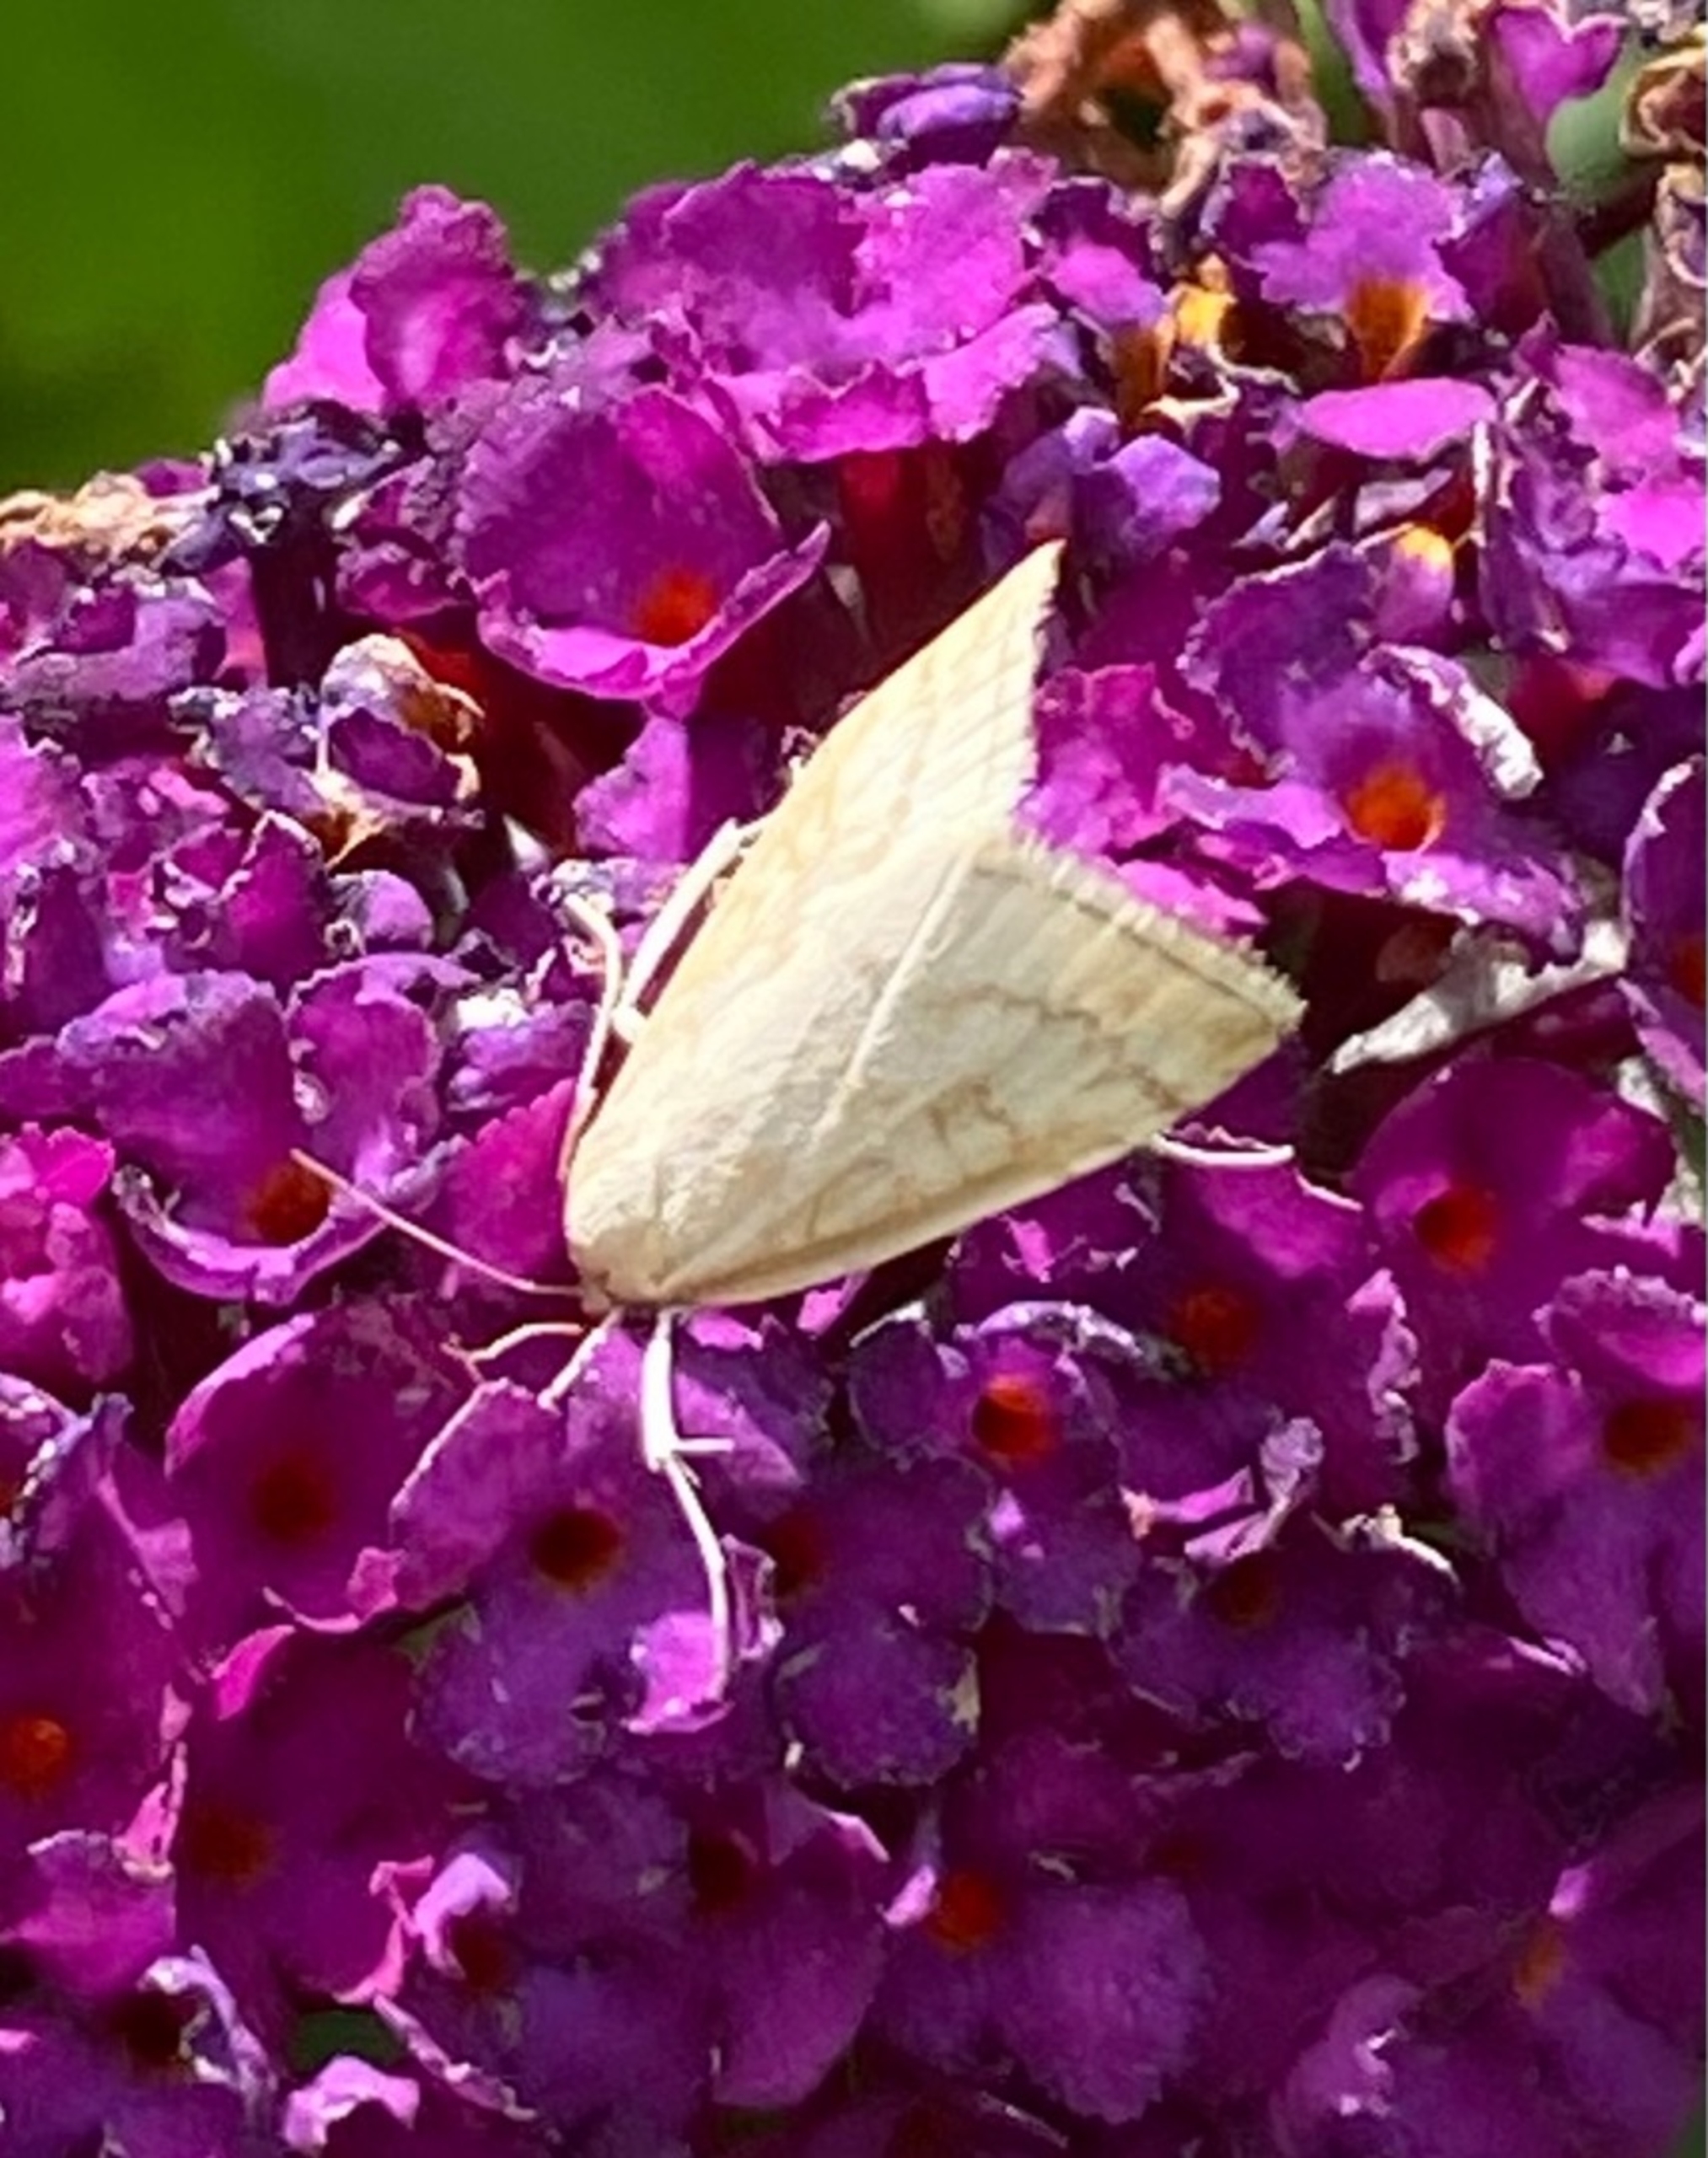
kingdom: Animalia
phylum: Arthropoda
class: Insecta
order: Lepidoptera
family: Crambidae
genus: Udea
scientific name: Udea lutealis
